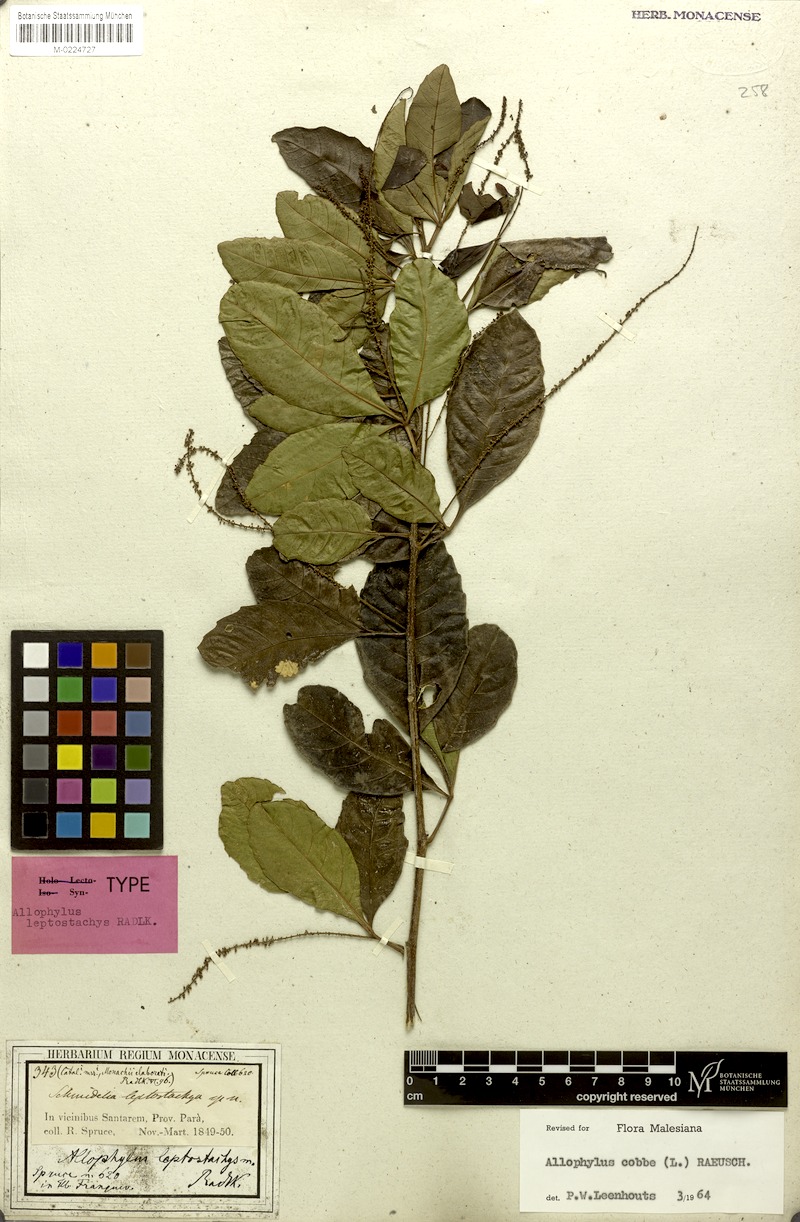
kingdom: Plantae
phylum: Tracheophyta
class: Magnoliopsida
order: Sapindales
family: Sapindaceae
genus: Allophylus
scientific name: Allophylus leptostachys
